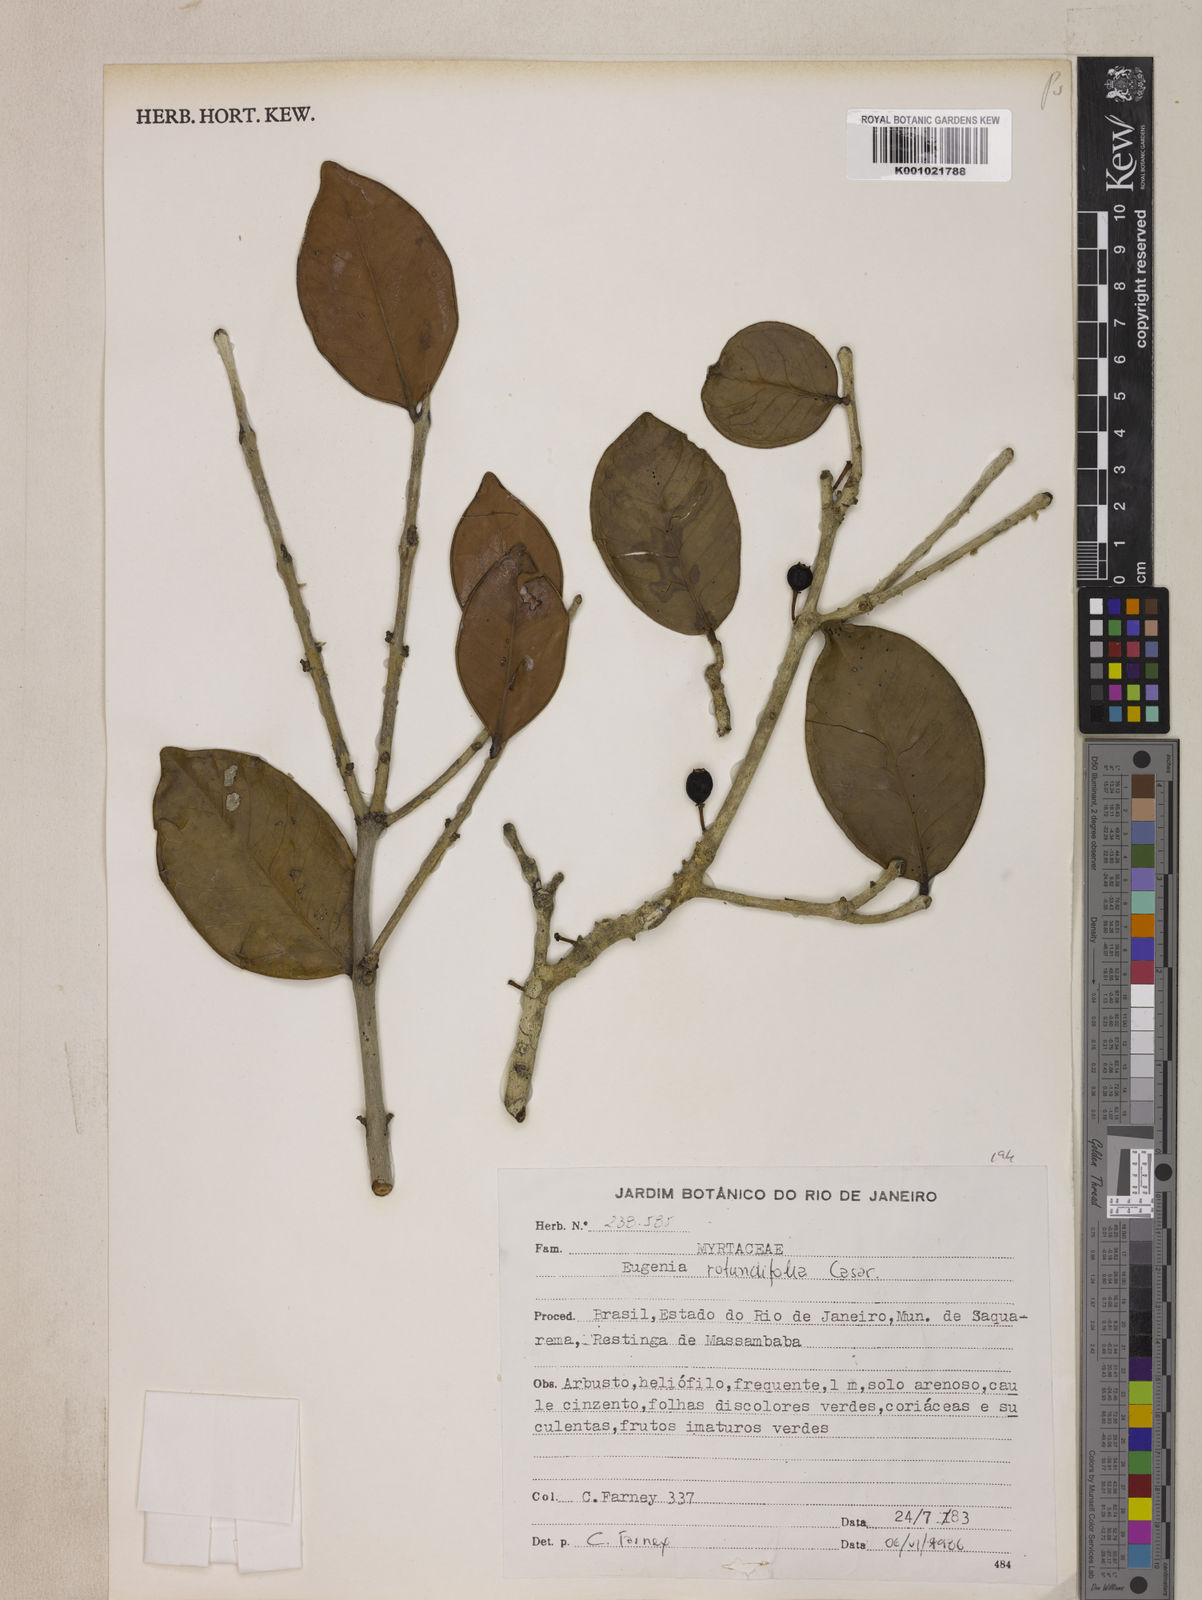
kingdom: Plantae
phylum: Tracheophyta
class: Magnoliopsida
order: Myrtales
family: Myrtaceae
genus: Eugenia
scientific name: Eugenia casarettoana
